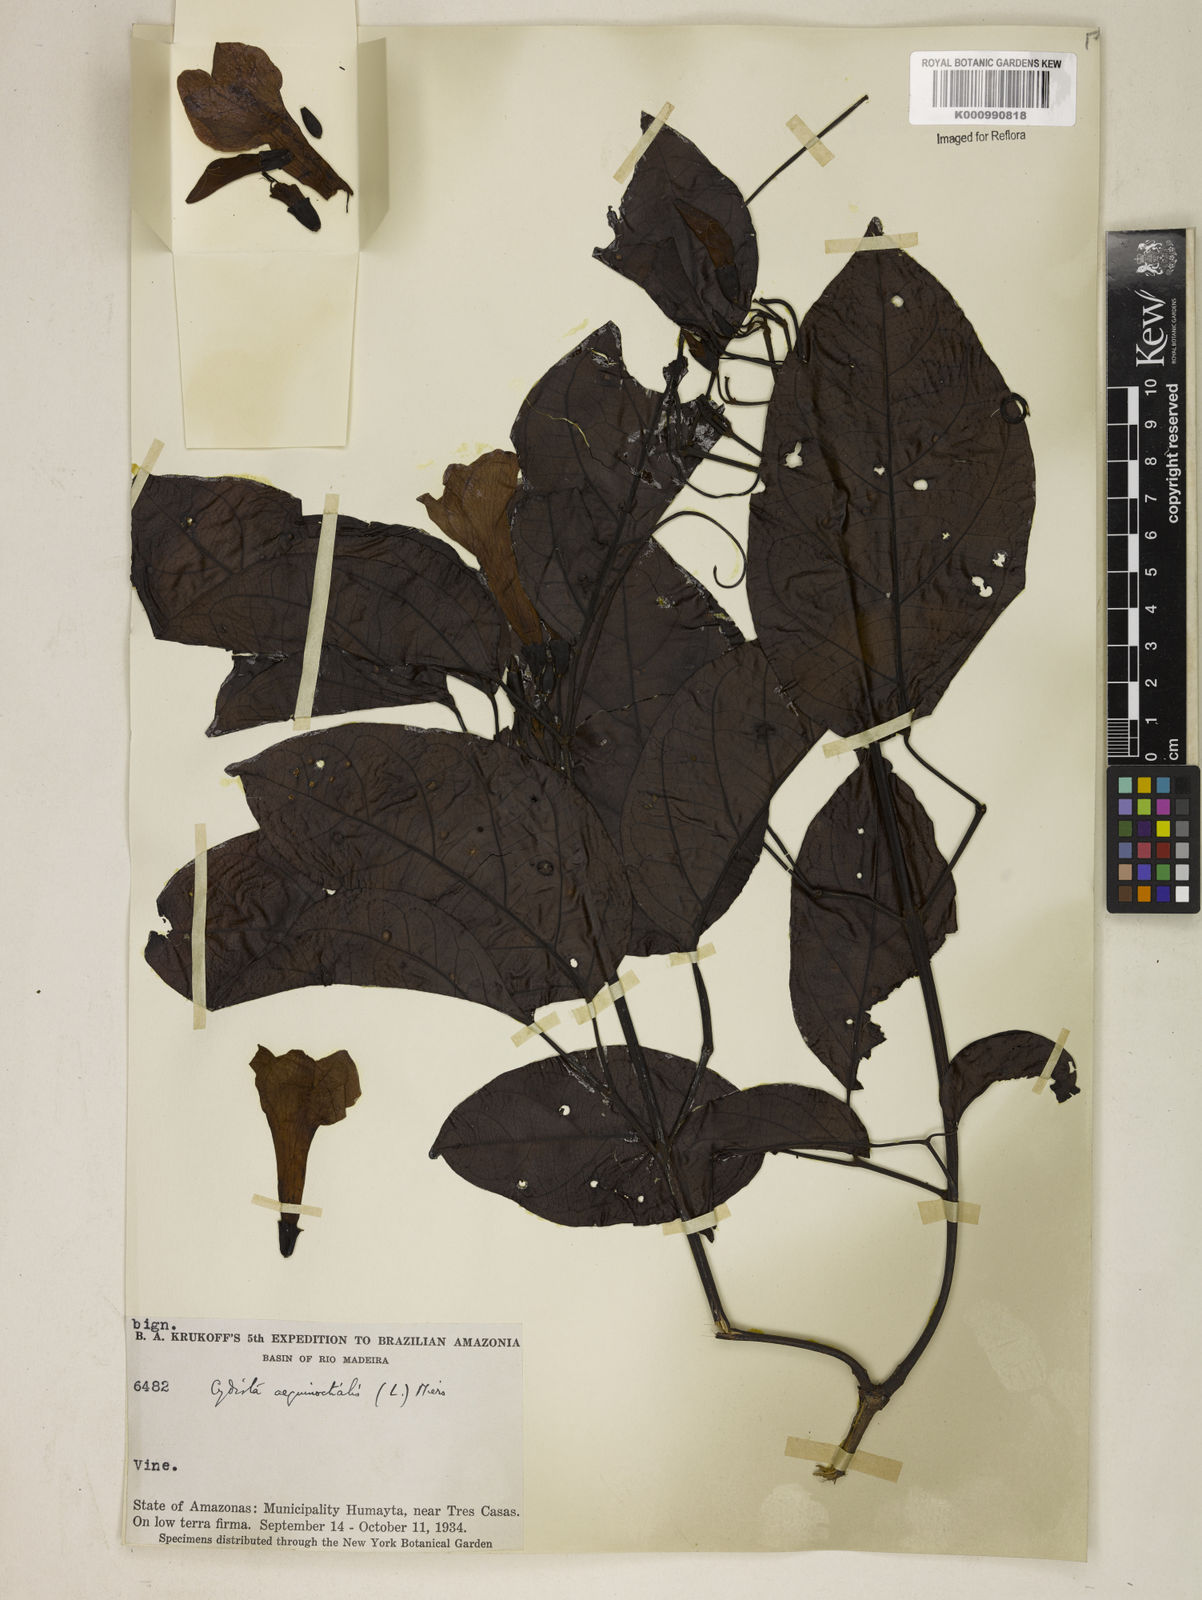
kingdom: Plantae
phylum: Tracheophyta
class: Magnoliopsida
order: Lamiales
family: Bignoniaceae
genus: Bignonia
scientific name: Bignonia aequinoctialis
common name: Garlicvine
